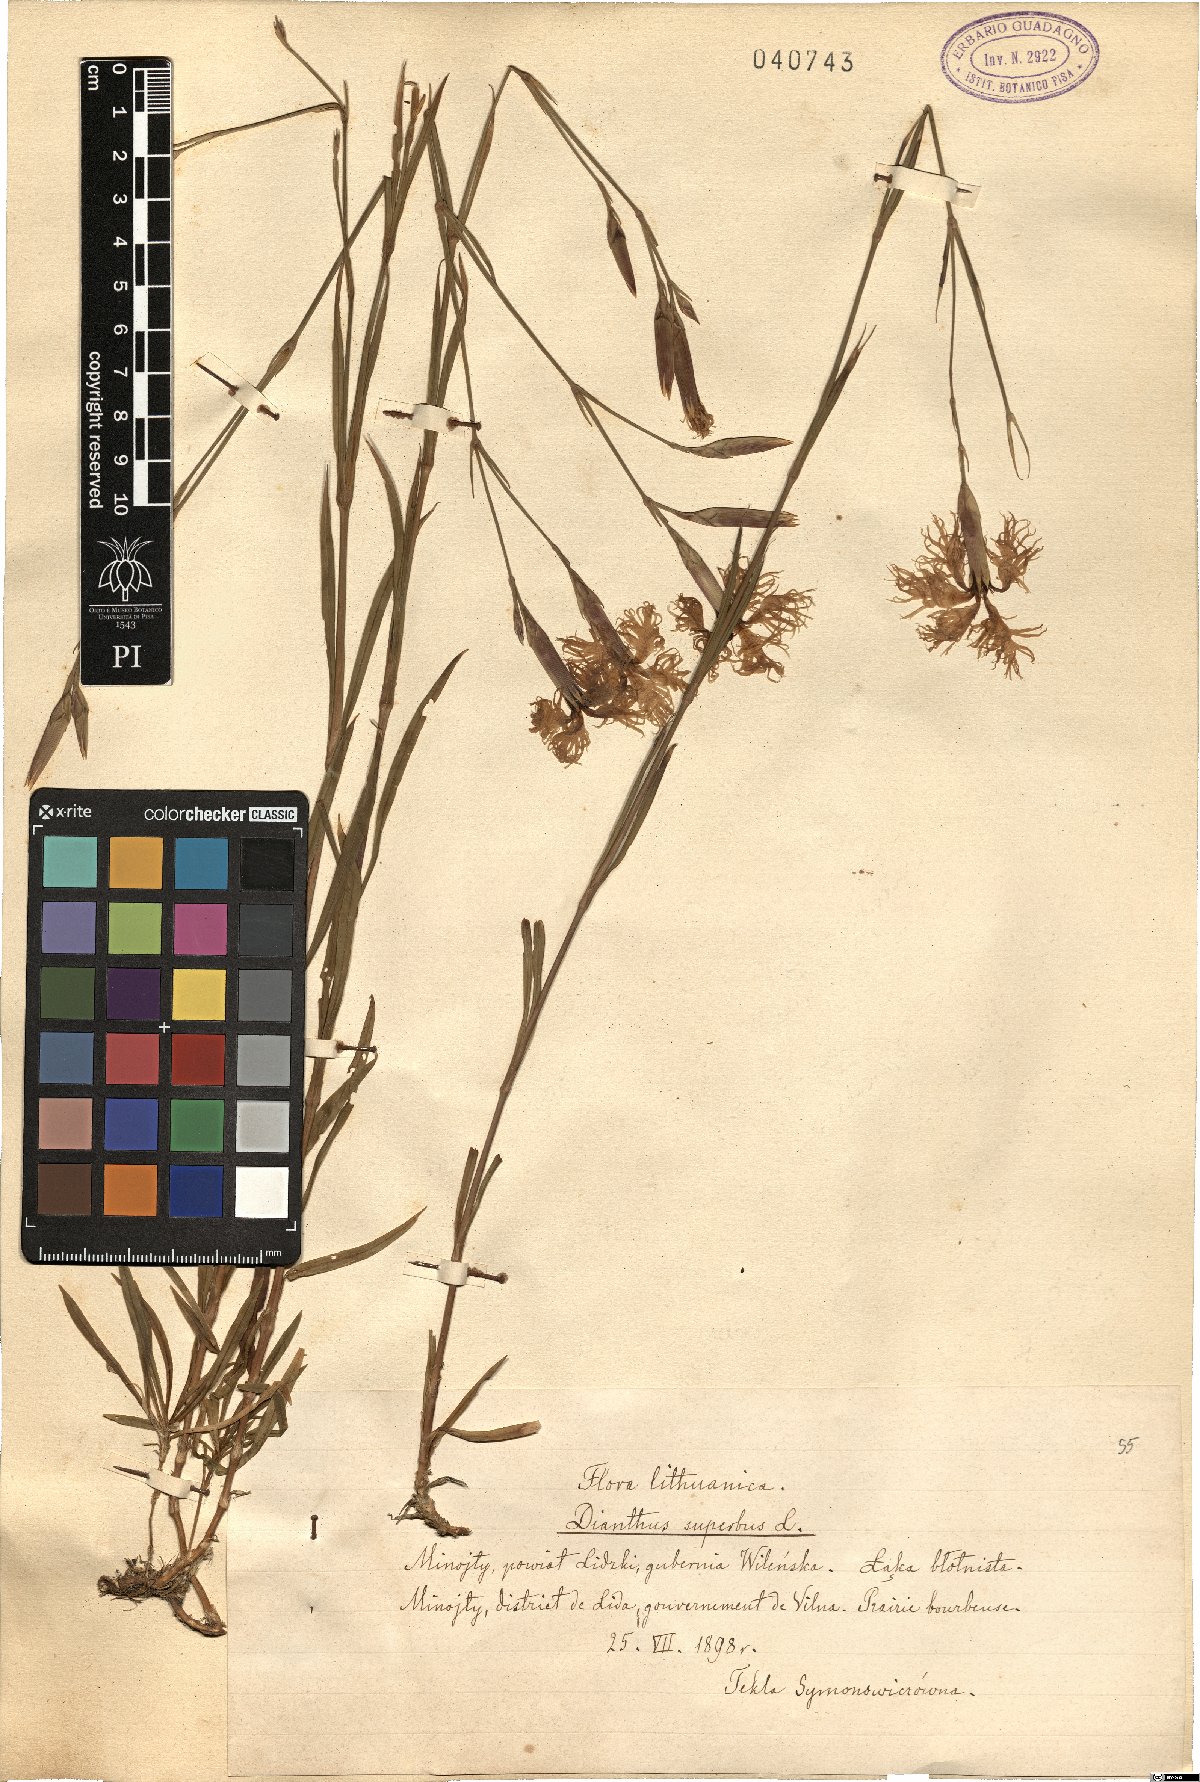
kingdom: Plantae
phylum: Tracheophyta
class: Magnoliopsida
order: Caryophyllales
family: Caryophyllaceae
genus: Dianthus
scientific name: Dianthus superbus
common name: Fringed pink
